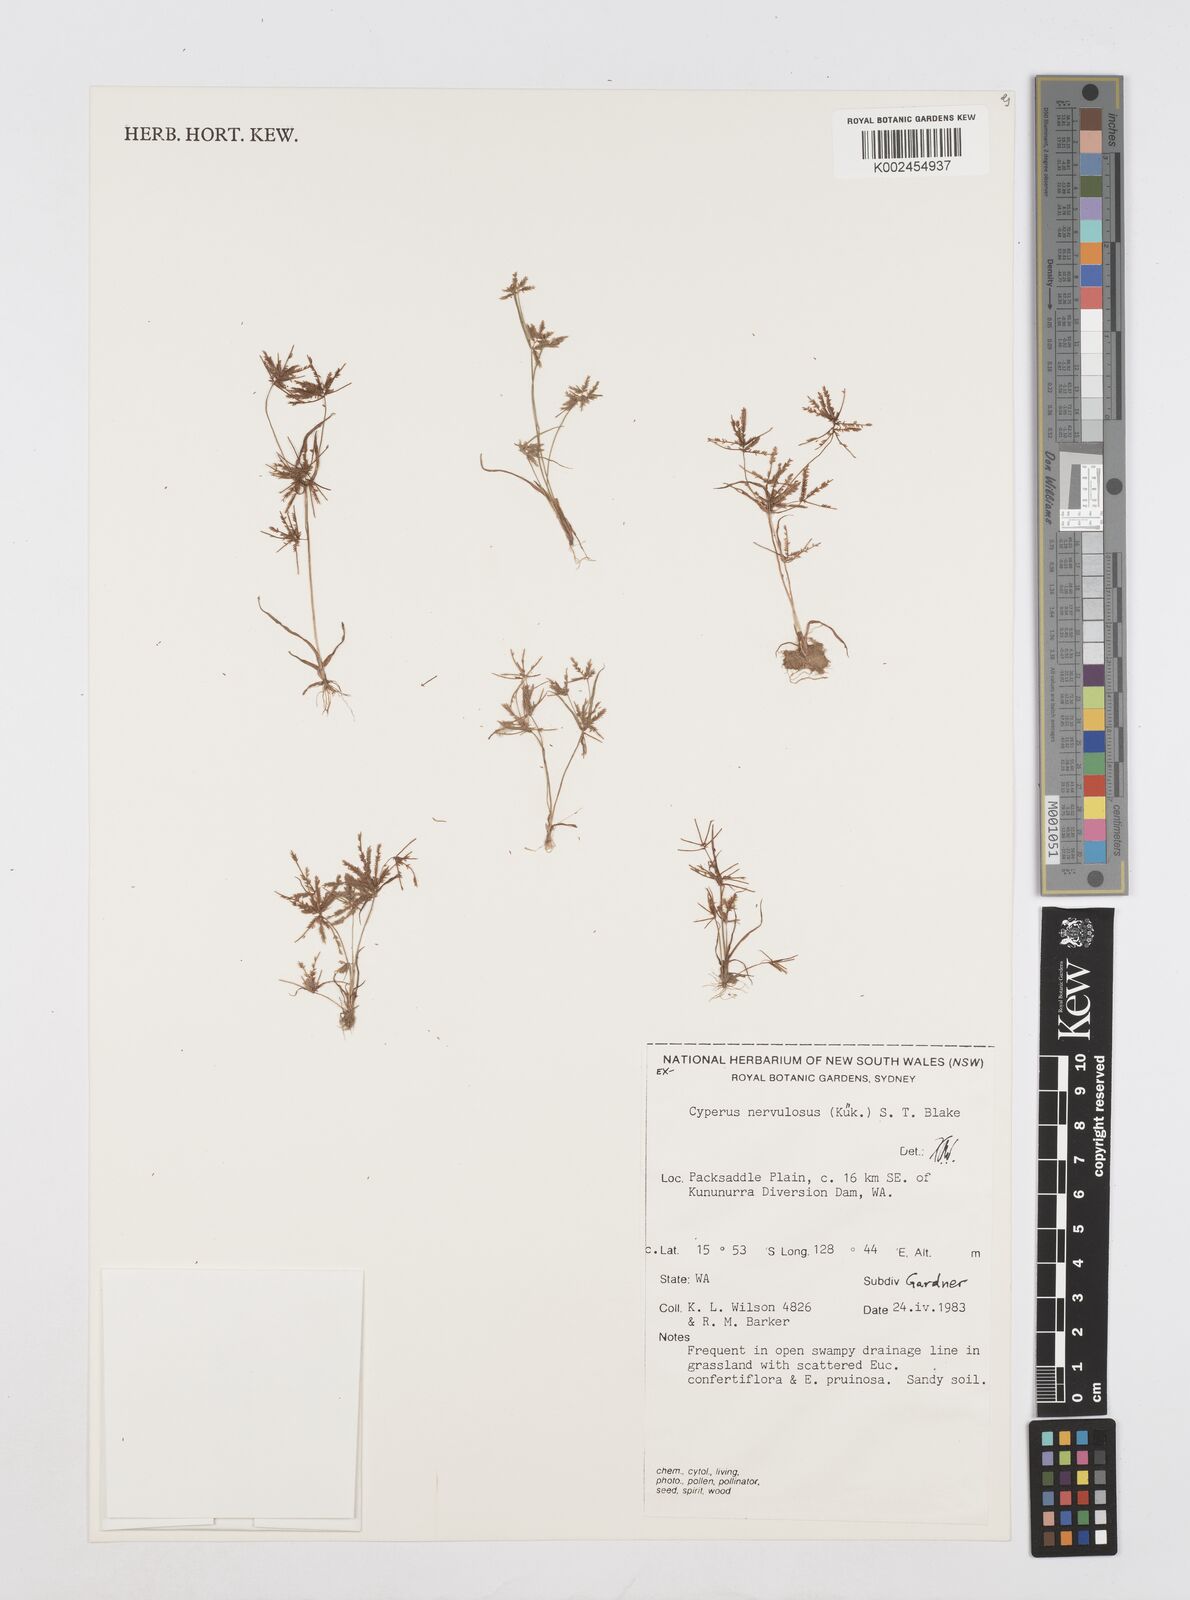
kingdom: Plantae
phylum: Tracheophyta
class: Liliopsida
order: Poales
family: Cyperaceae
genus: Cyperus
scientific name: Cyperus nervulosus
